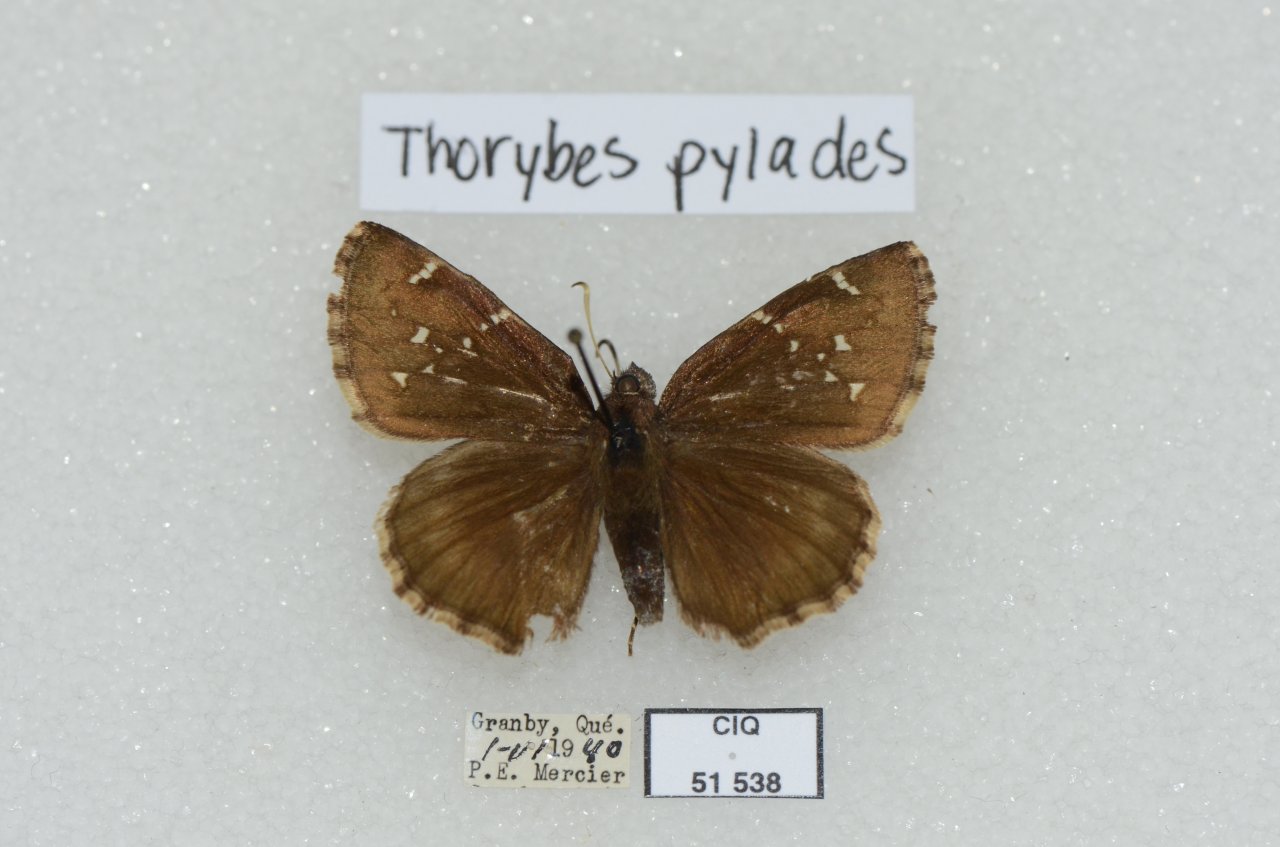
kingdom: Animalia
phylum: Arthropoda
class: Insecta
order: Lepidoptera
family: Hesperiidae
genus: Autochton
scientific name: Autochton
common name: Northern Cloudywing
